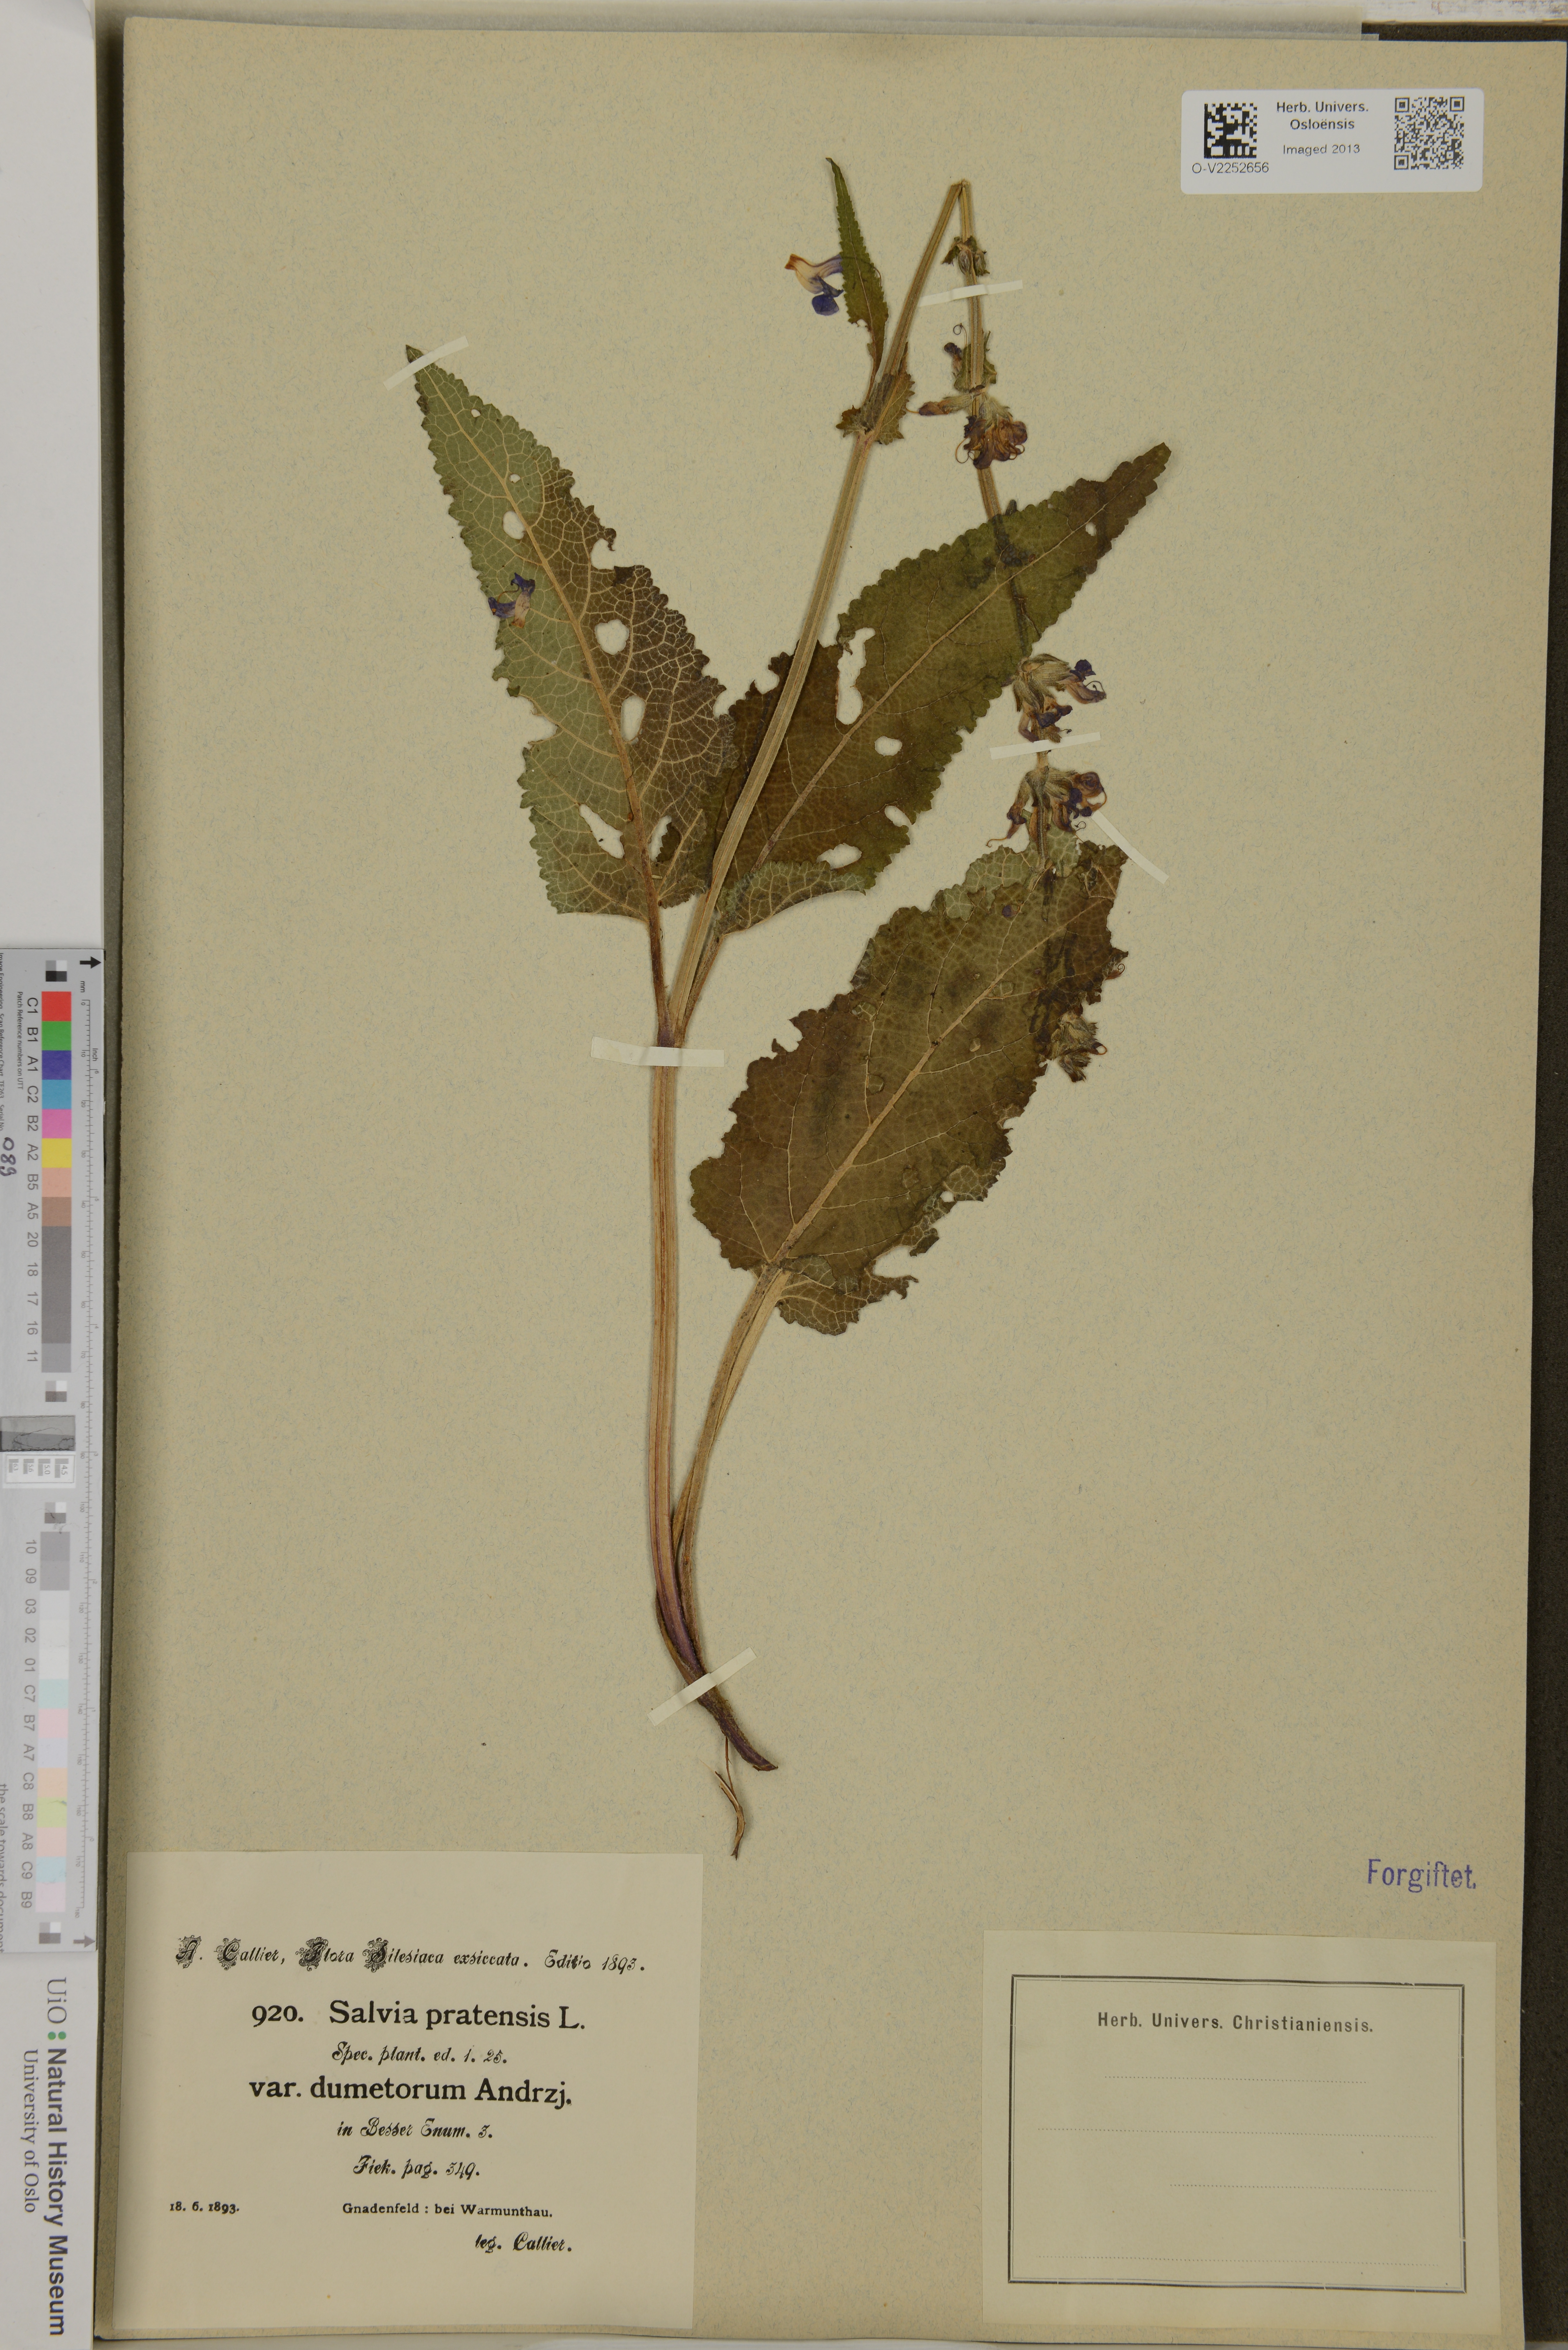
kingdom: Plantae
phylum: Tracheophyta
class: Magnoliopsida
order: Lamiales
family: Lamiaceae
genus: Salvia
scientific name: Salvia pratensis
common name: Meadow sage
